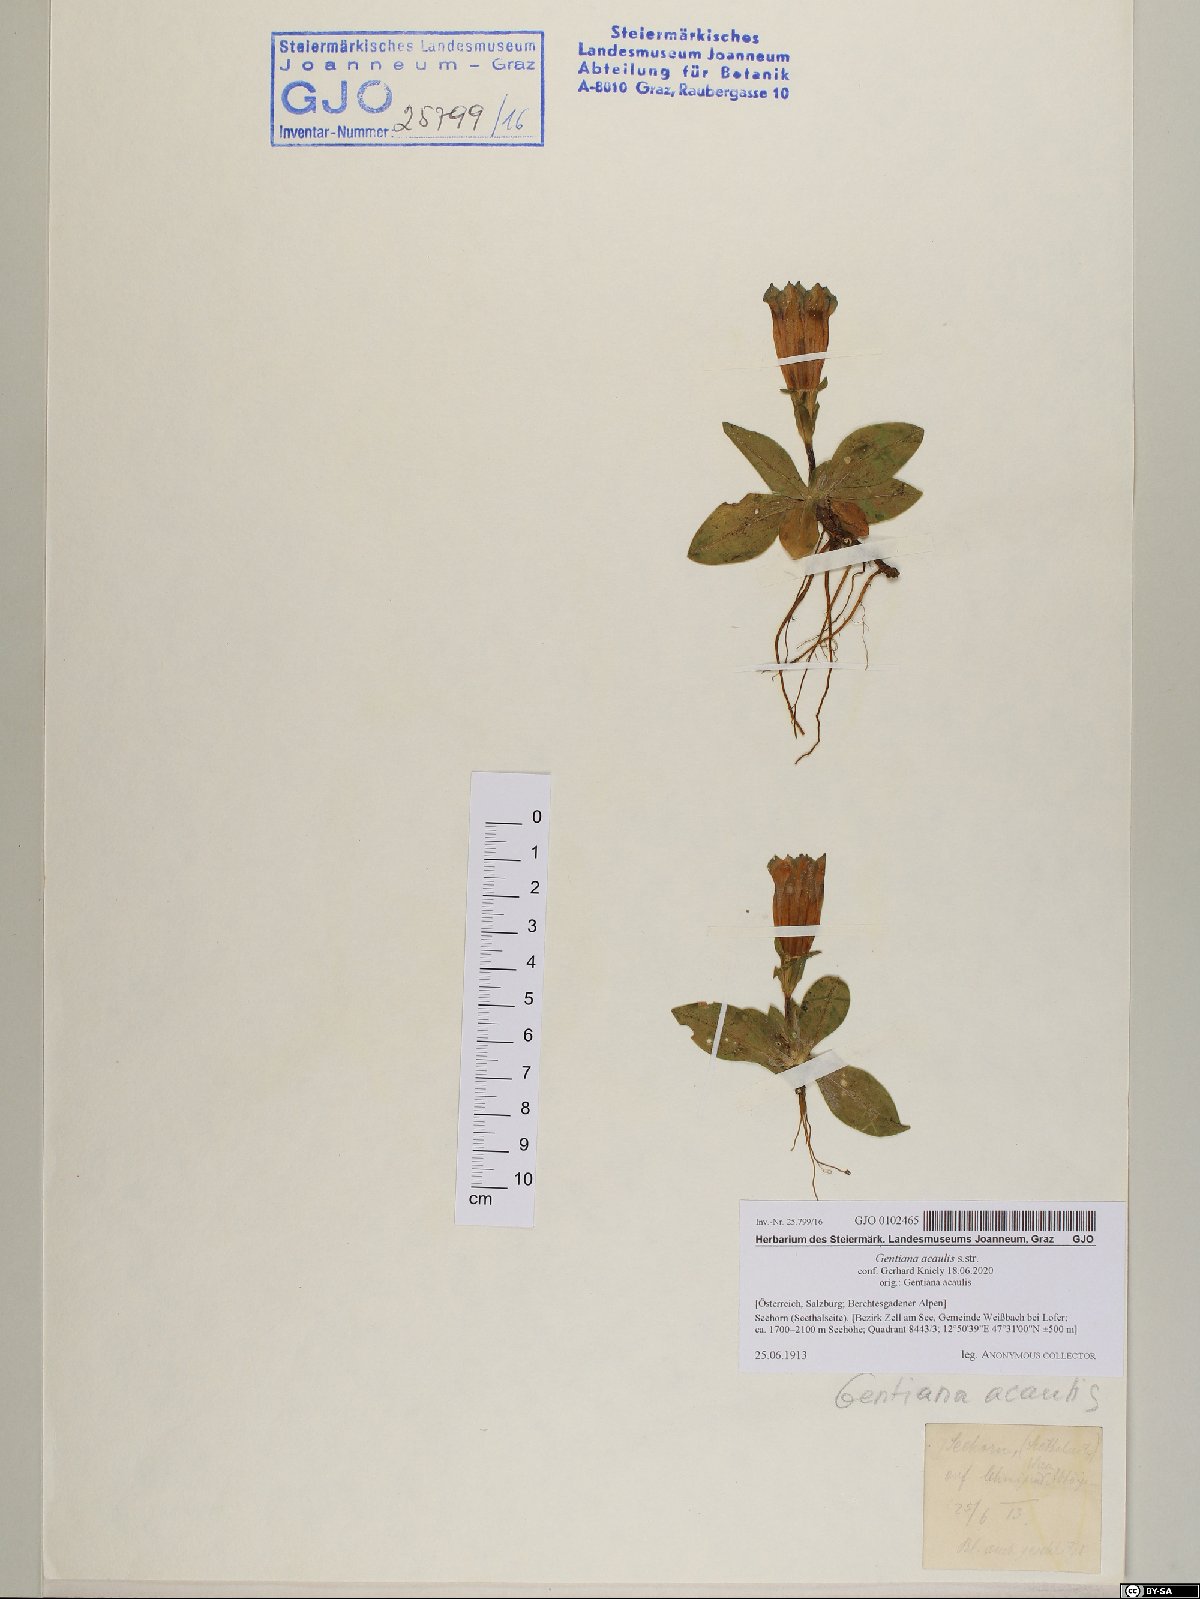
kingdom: Plantae
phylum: Tracheophyta
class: Magnoliopsida
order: Gentianales
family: Gentianaceae
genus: Gentiana
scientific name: Gentiana acaulis
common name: Trumpet gentian
